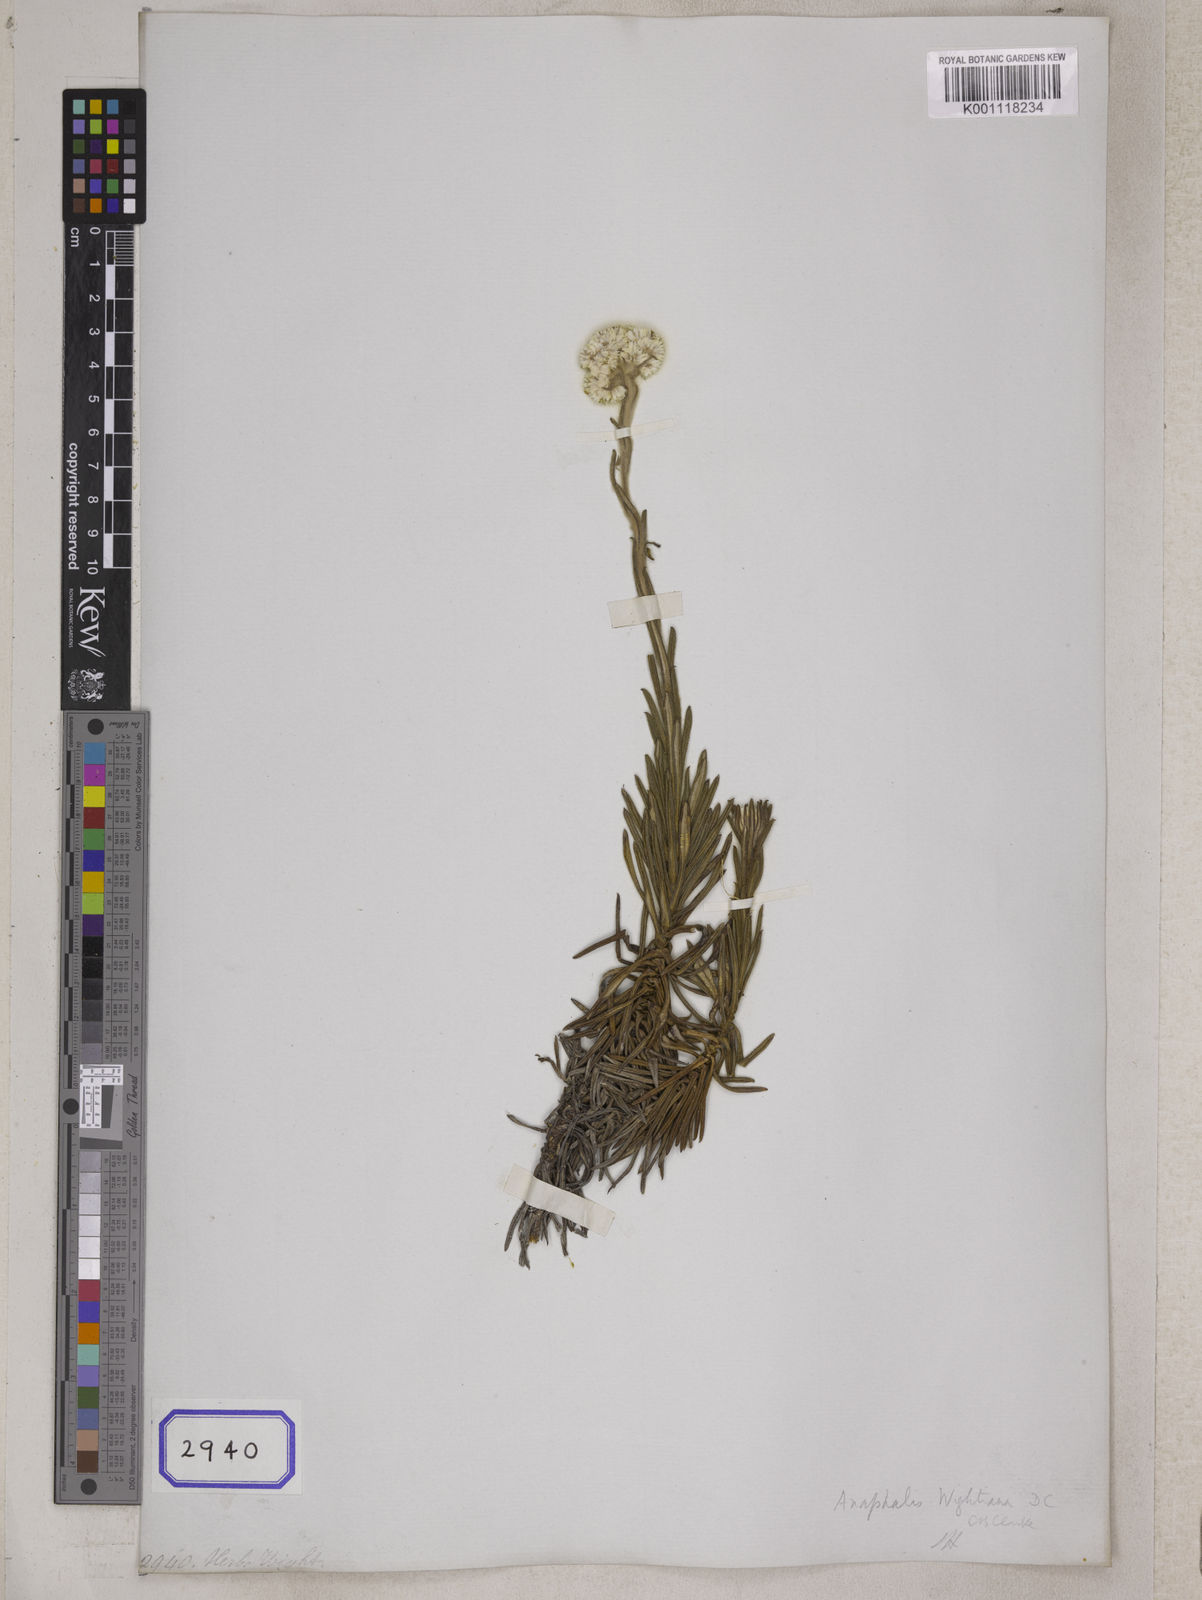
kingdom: Plantae
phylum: Tracheophyta
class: Magnoliopsida
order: Asterales
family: Asteraceae
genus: Gnaphalium
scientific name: Gnaphalium
